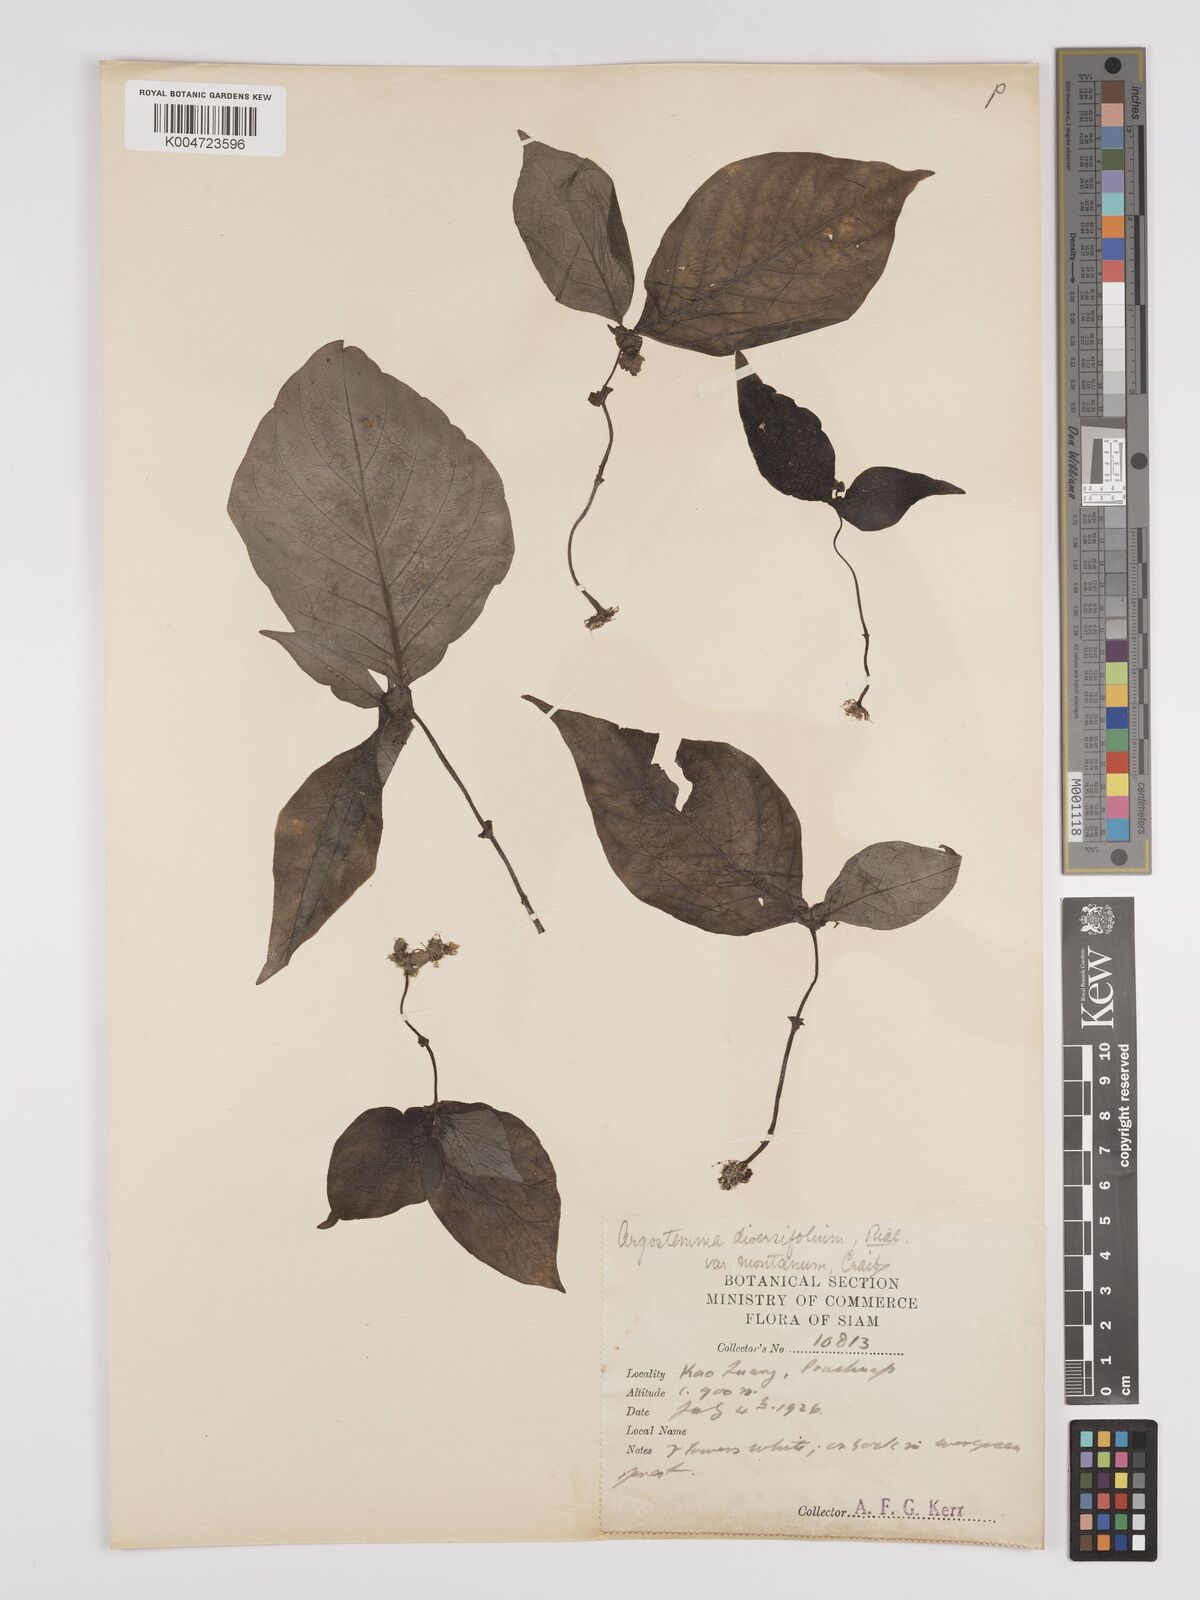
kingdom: Plantae
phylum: Tracheophyta
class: Magnoliopsida
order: Gentianales
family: Rubiaceae
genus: Argostemma
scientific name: Argostemma diversifolium
